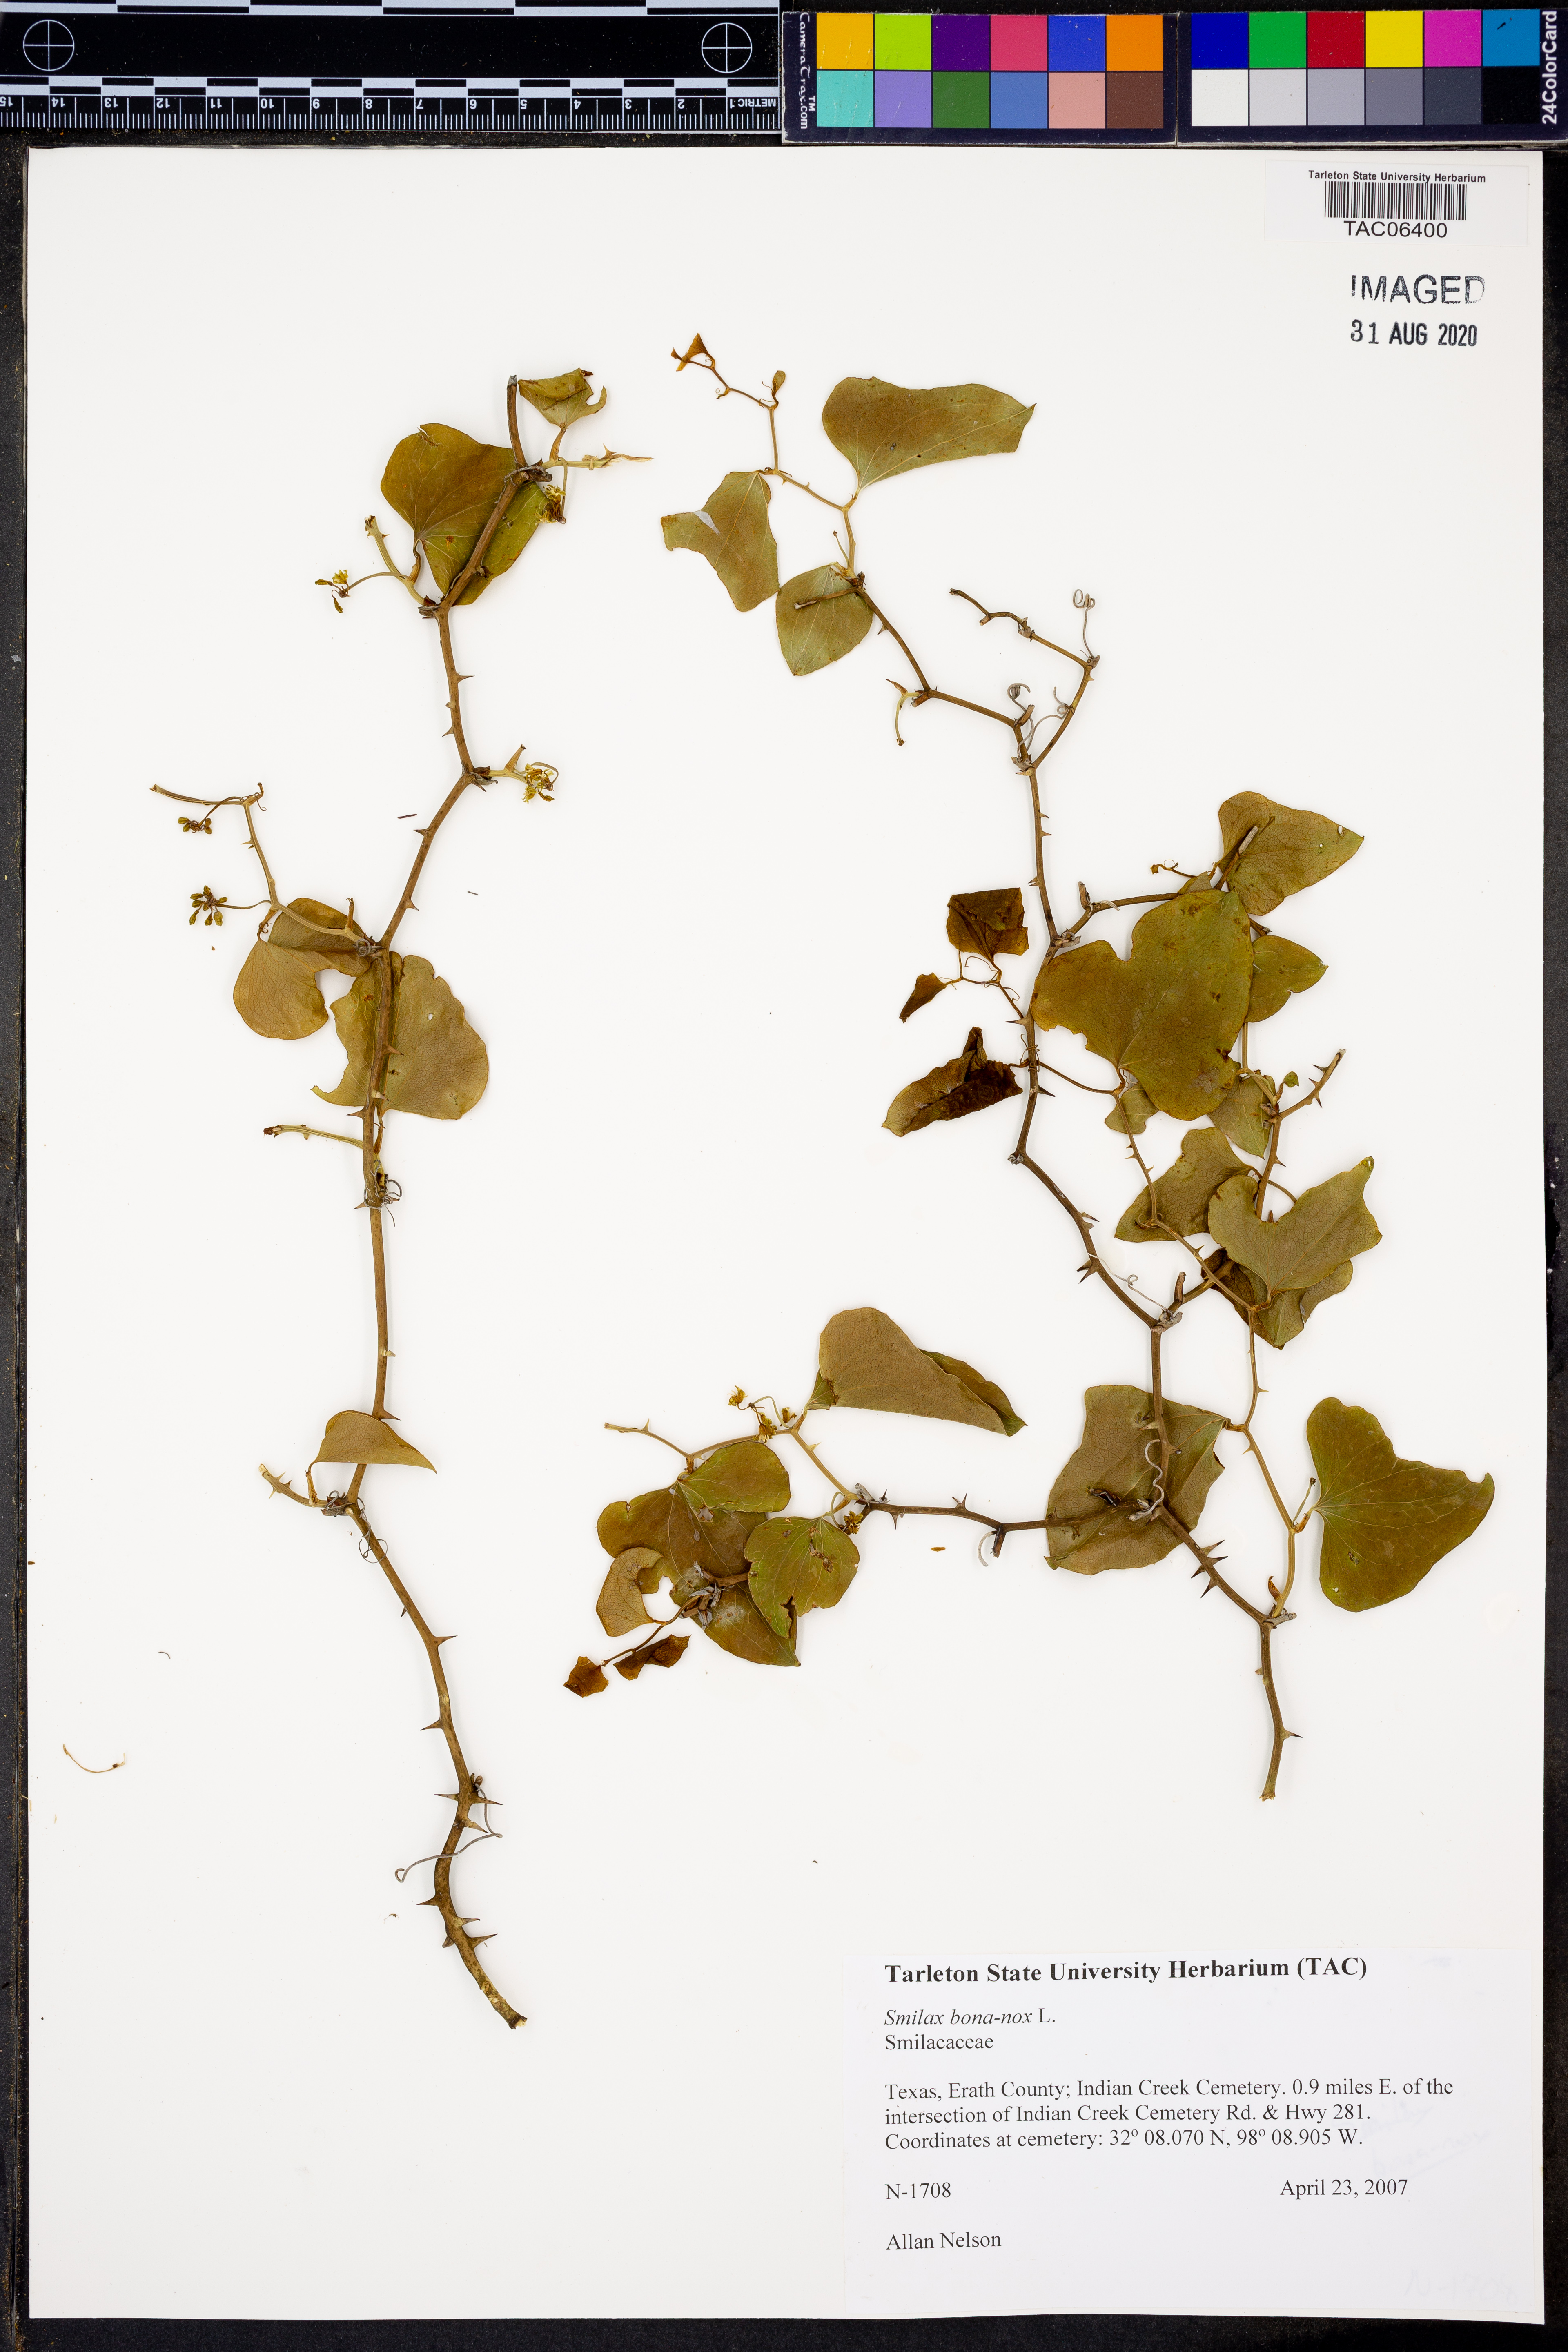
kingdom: Plantae
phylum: Tracheophyta
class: Liliopsida
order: Liliales
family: Smilacaceae
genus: Smilax
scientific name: Smilax bona-nox
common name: Catbrier
